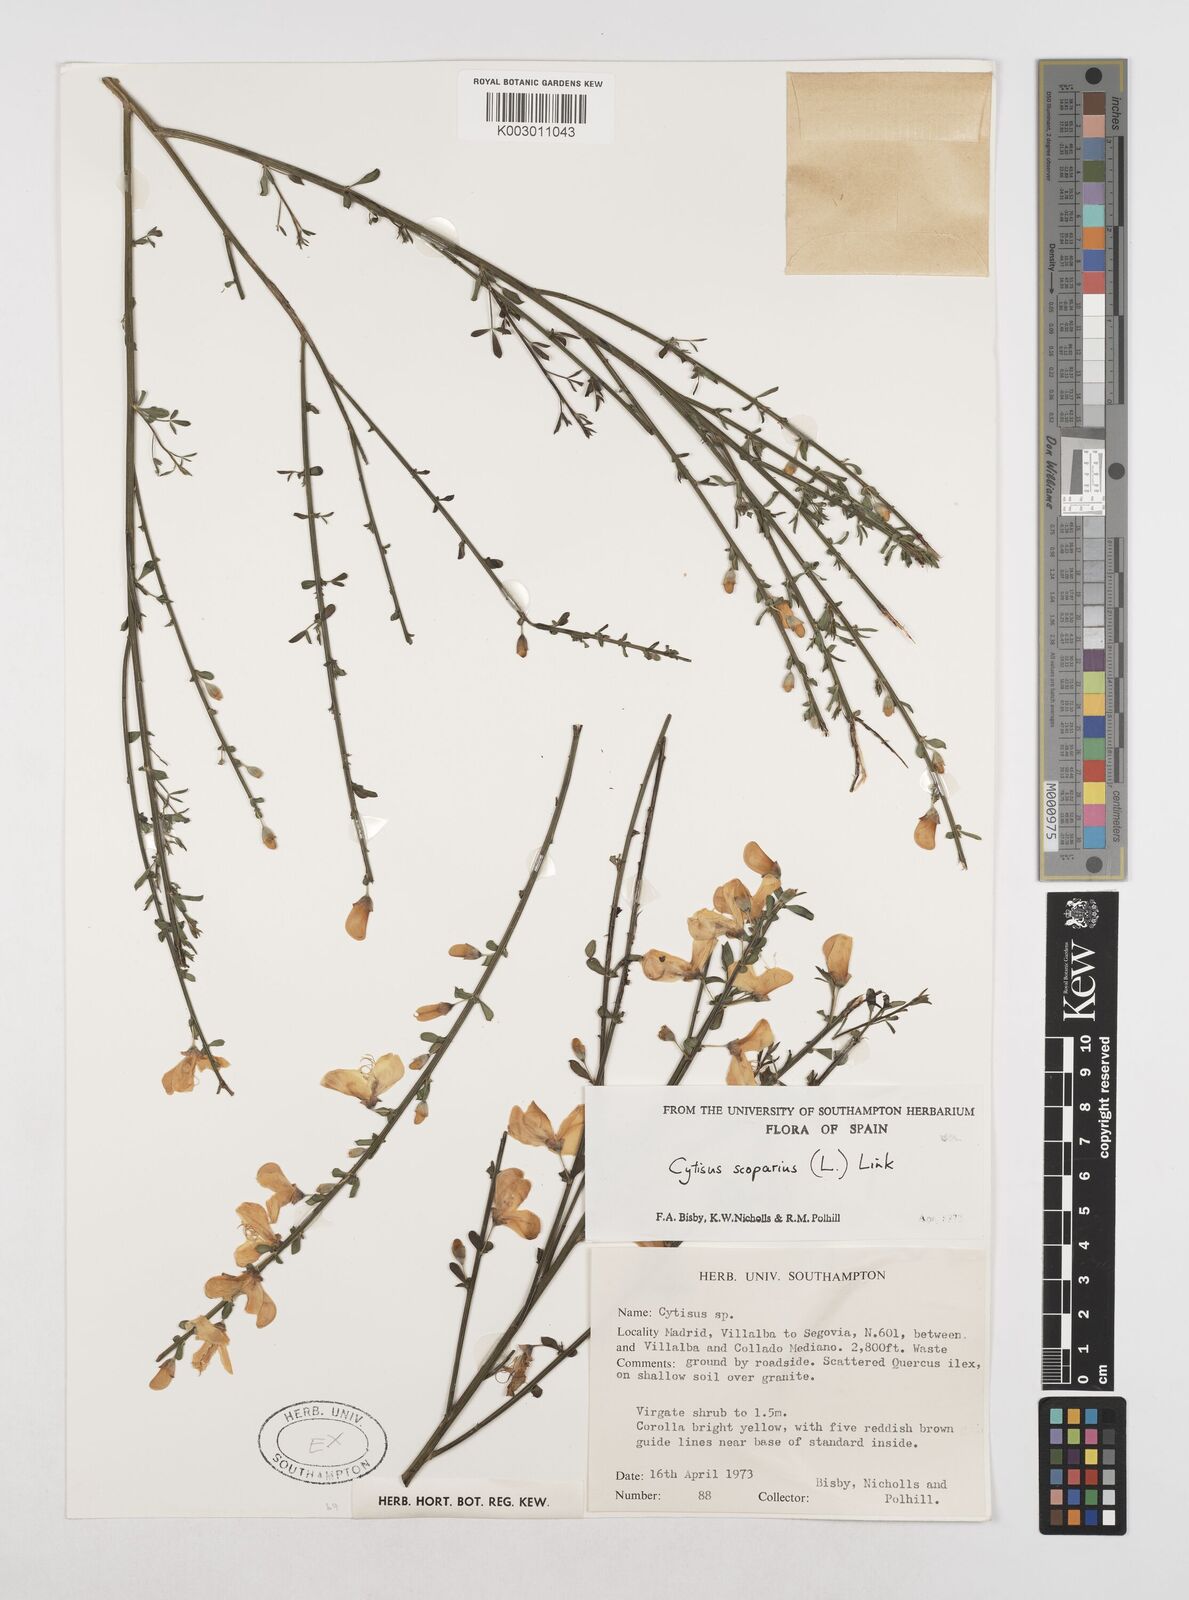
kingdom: Plantae
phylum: Tracheophyta
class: Magnoliopsida
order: Fabales
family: Fabaceae
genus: Cytisus
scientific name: Cytisus scoparius
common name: Scotch broom
